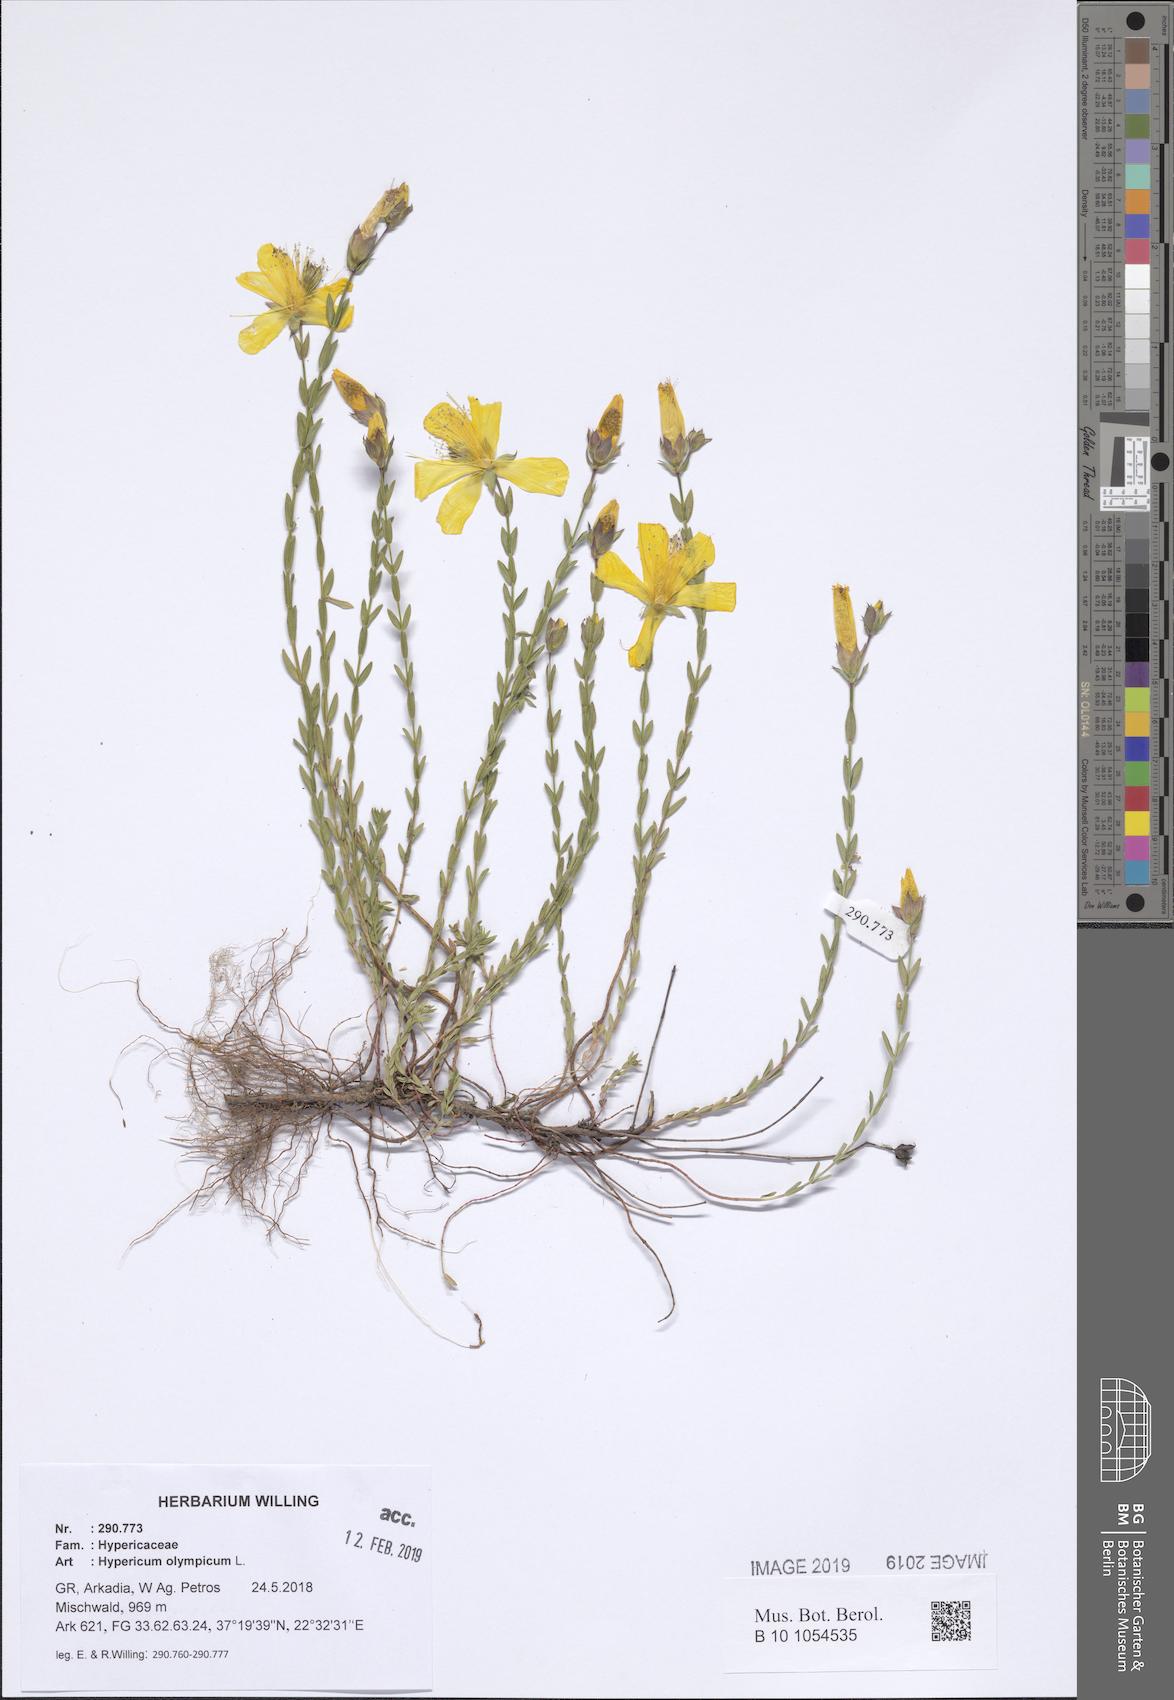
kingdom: Plantae
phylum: Tracheophyta
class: Magnoliopsida
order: Malpighiales
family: Hypericaceae
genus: Hypericum
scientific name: Hypericum olympicum
